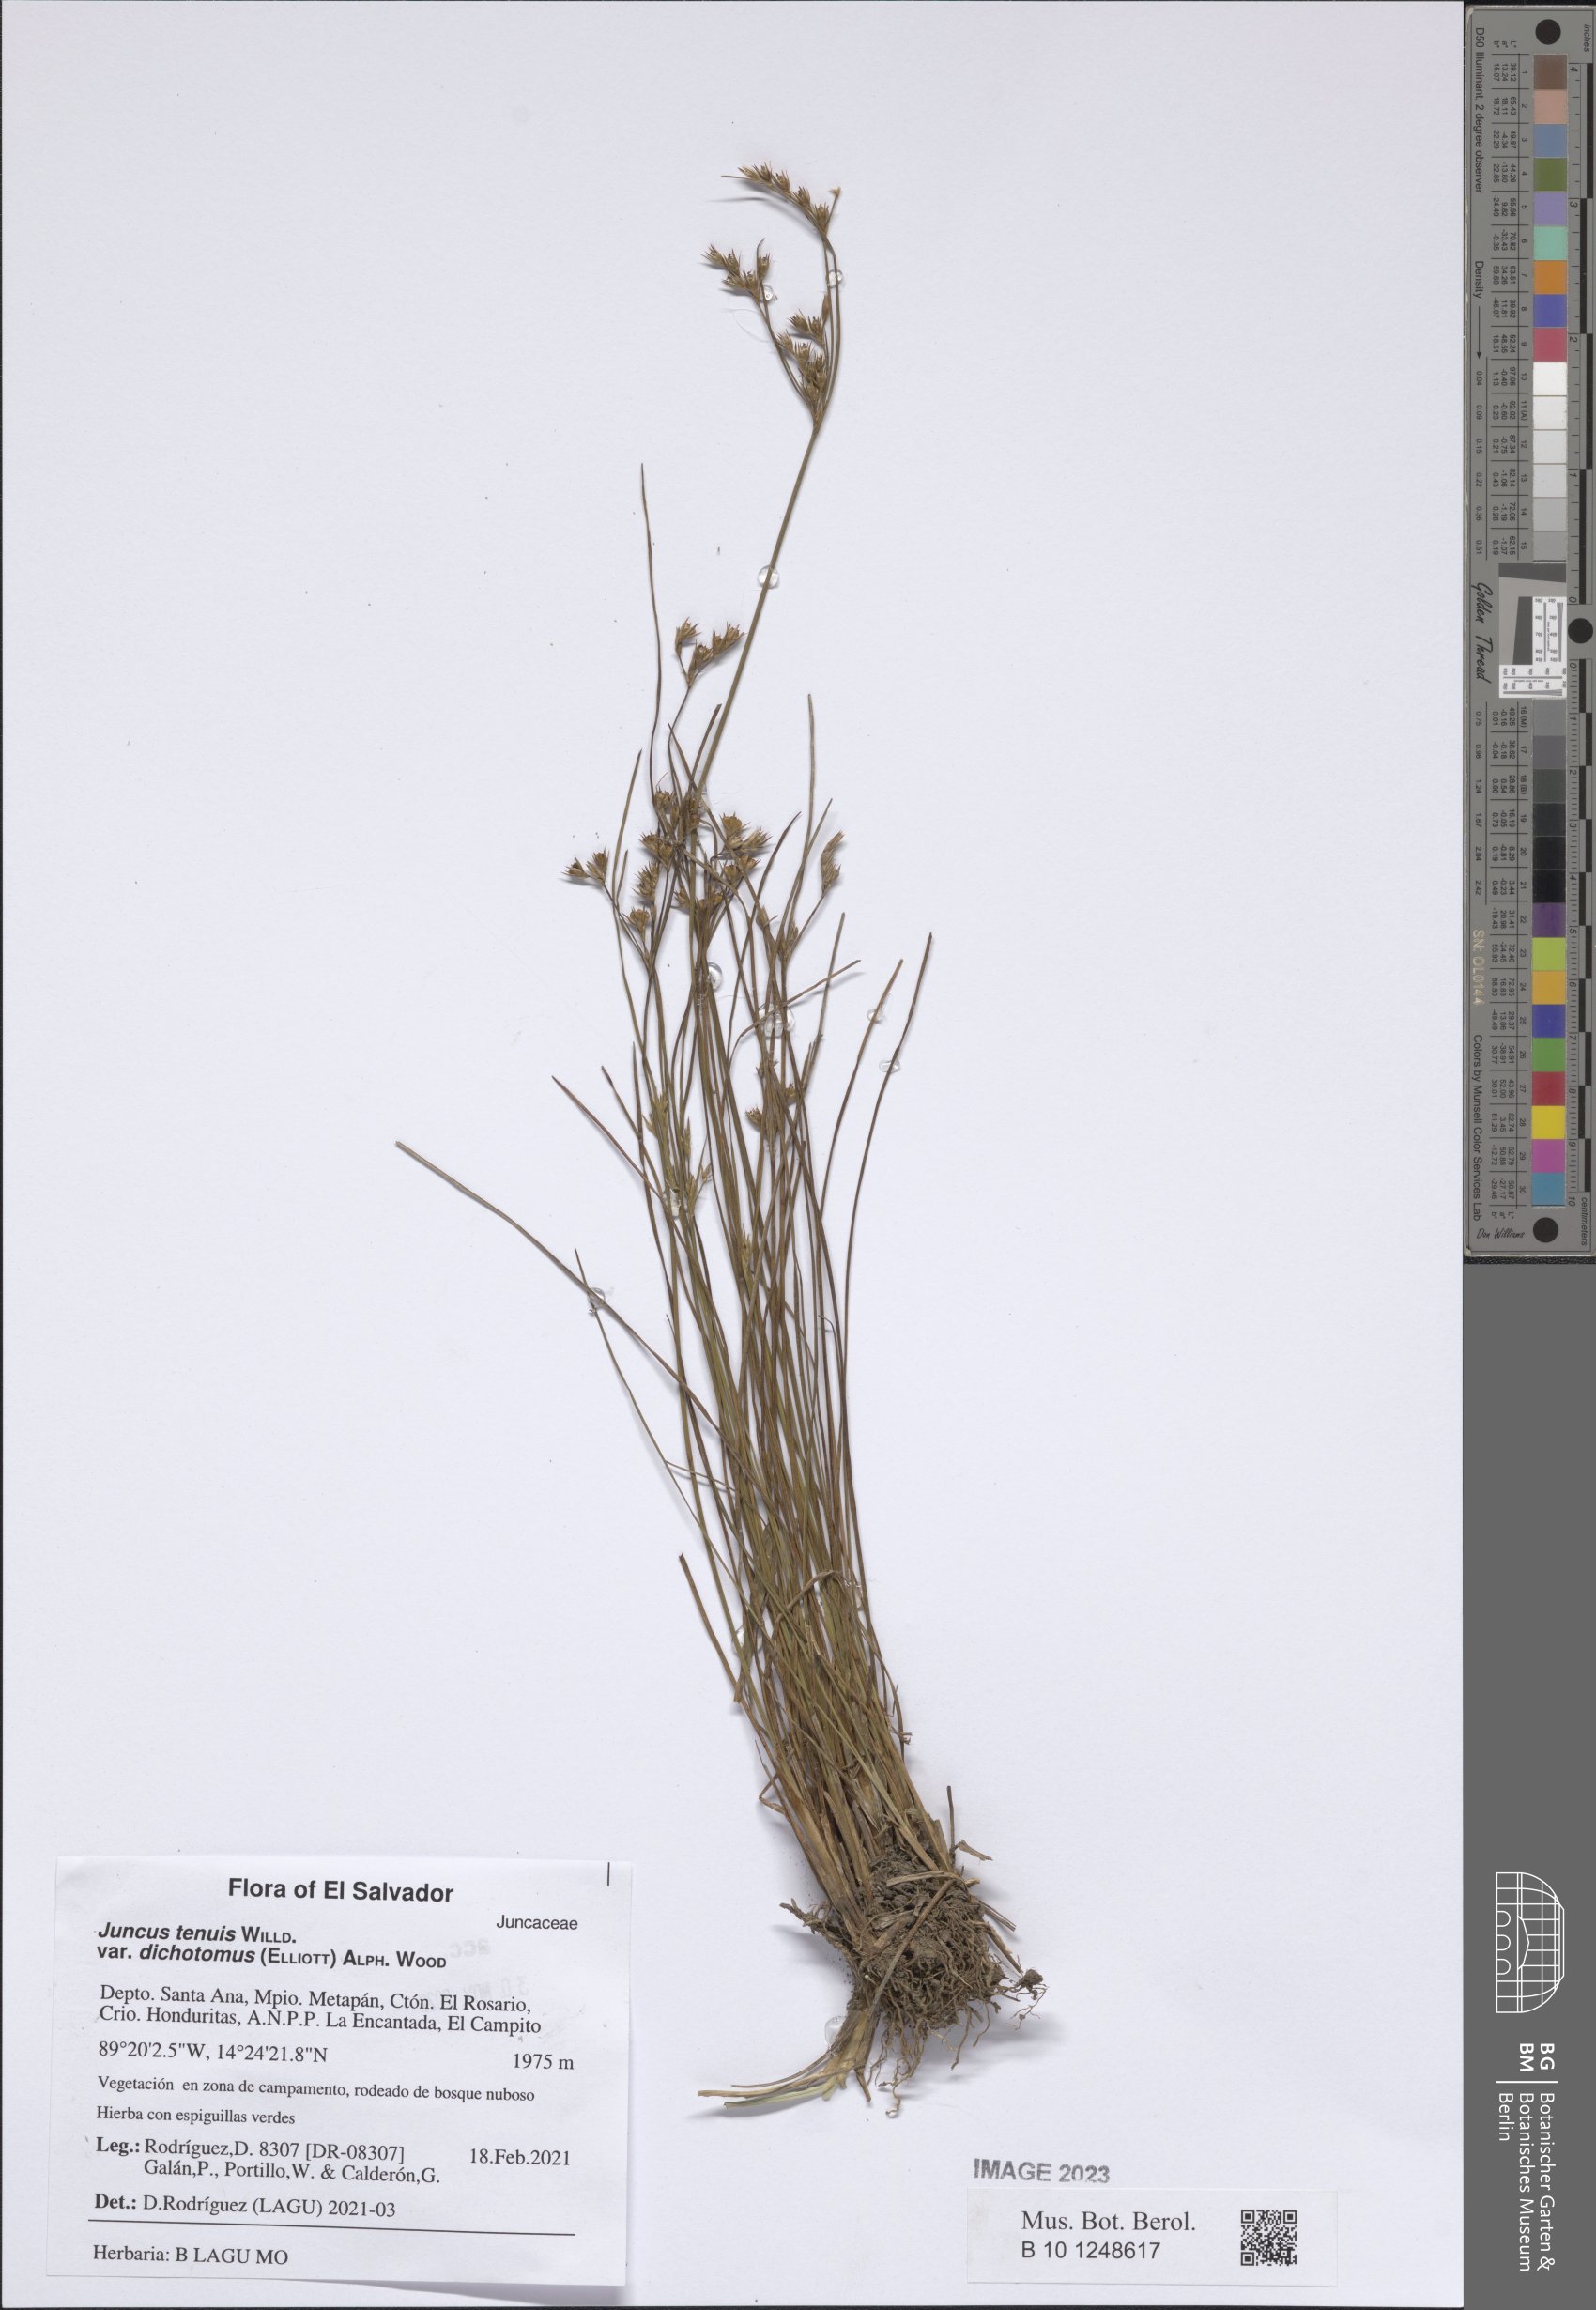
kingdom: Plantae
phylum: Tracheophyta
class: Liliopsida
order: Poales
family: Juncaceae
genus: Juncus
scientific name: Juncus dichotomus
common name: Forked rush
